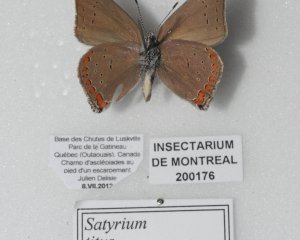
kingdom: Animalia
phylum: Arthropoda
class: Insecta
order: Lepidoptera
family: Lycaenidae
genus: Harkenclenus
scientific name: Harkenclenus titus
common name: Coral Hairstreak
